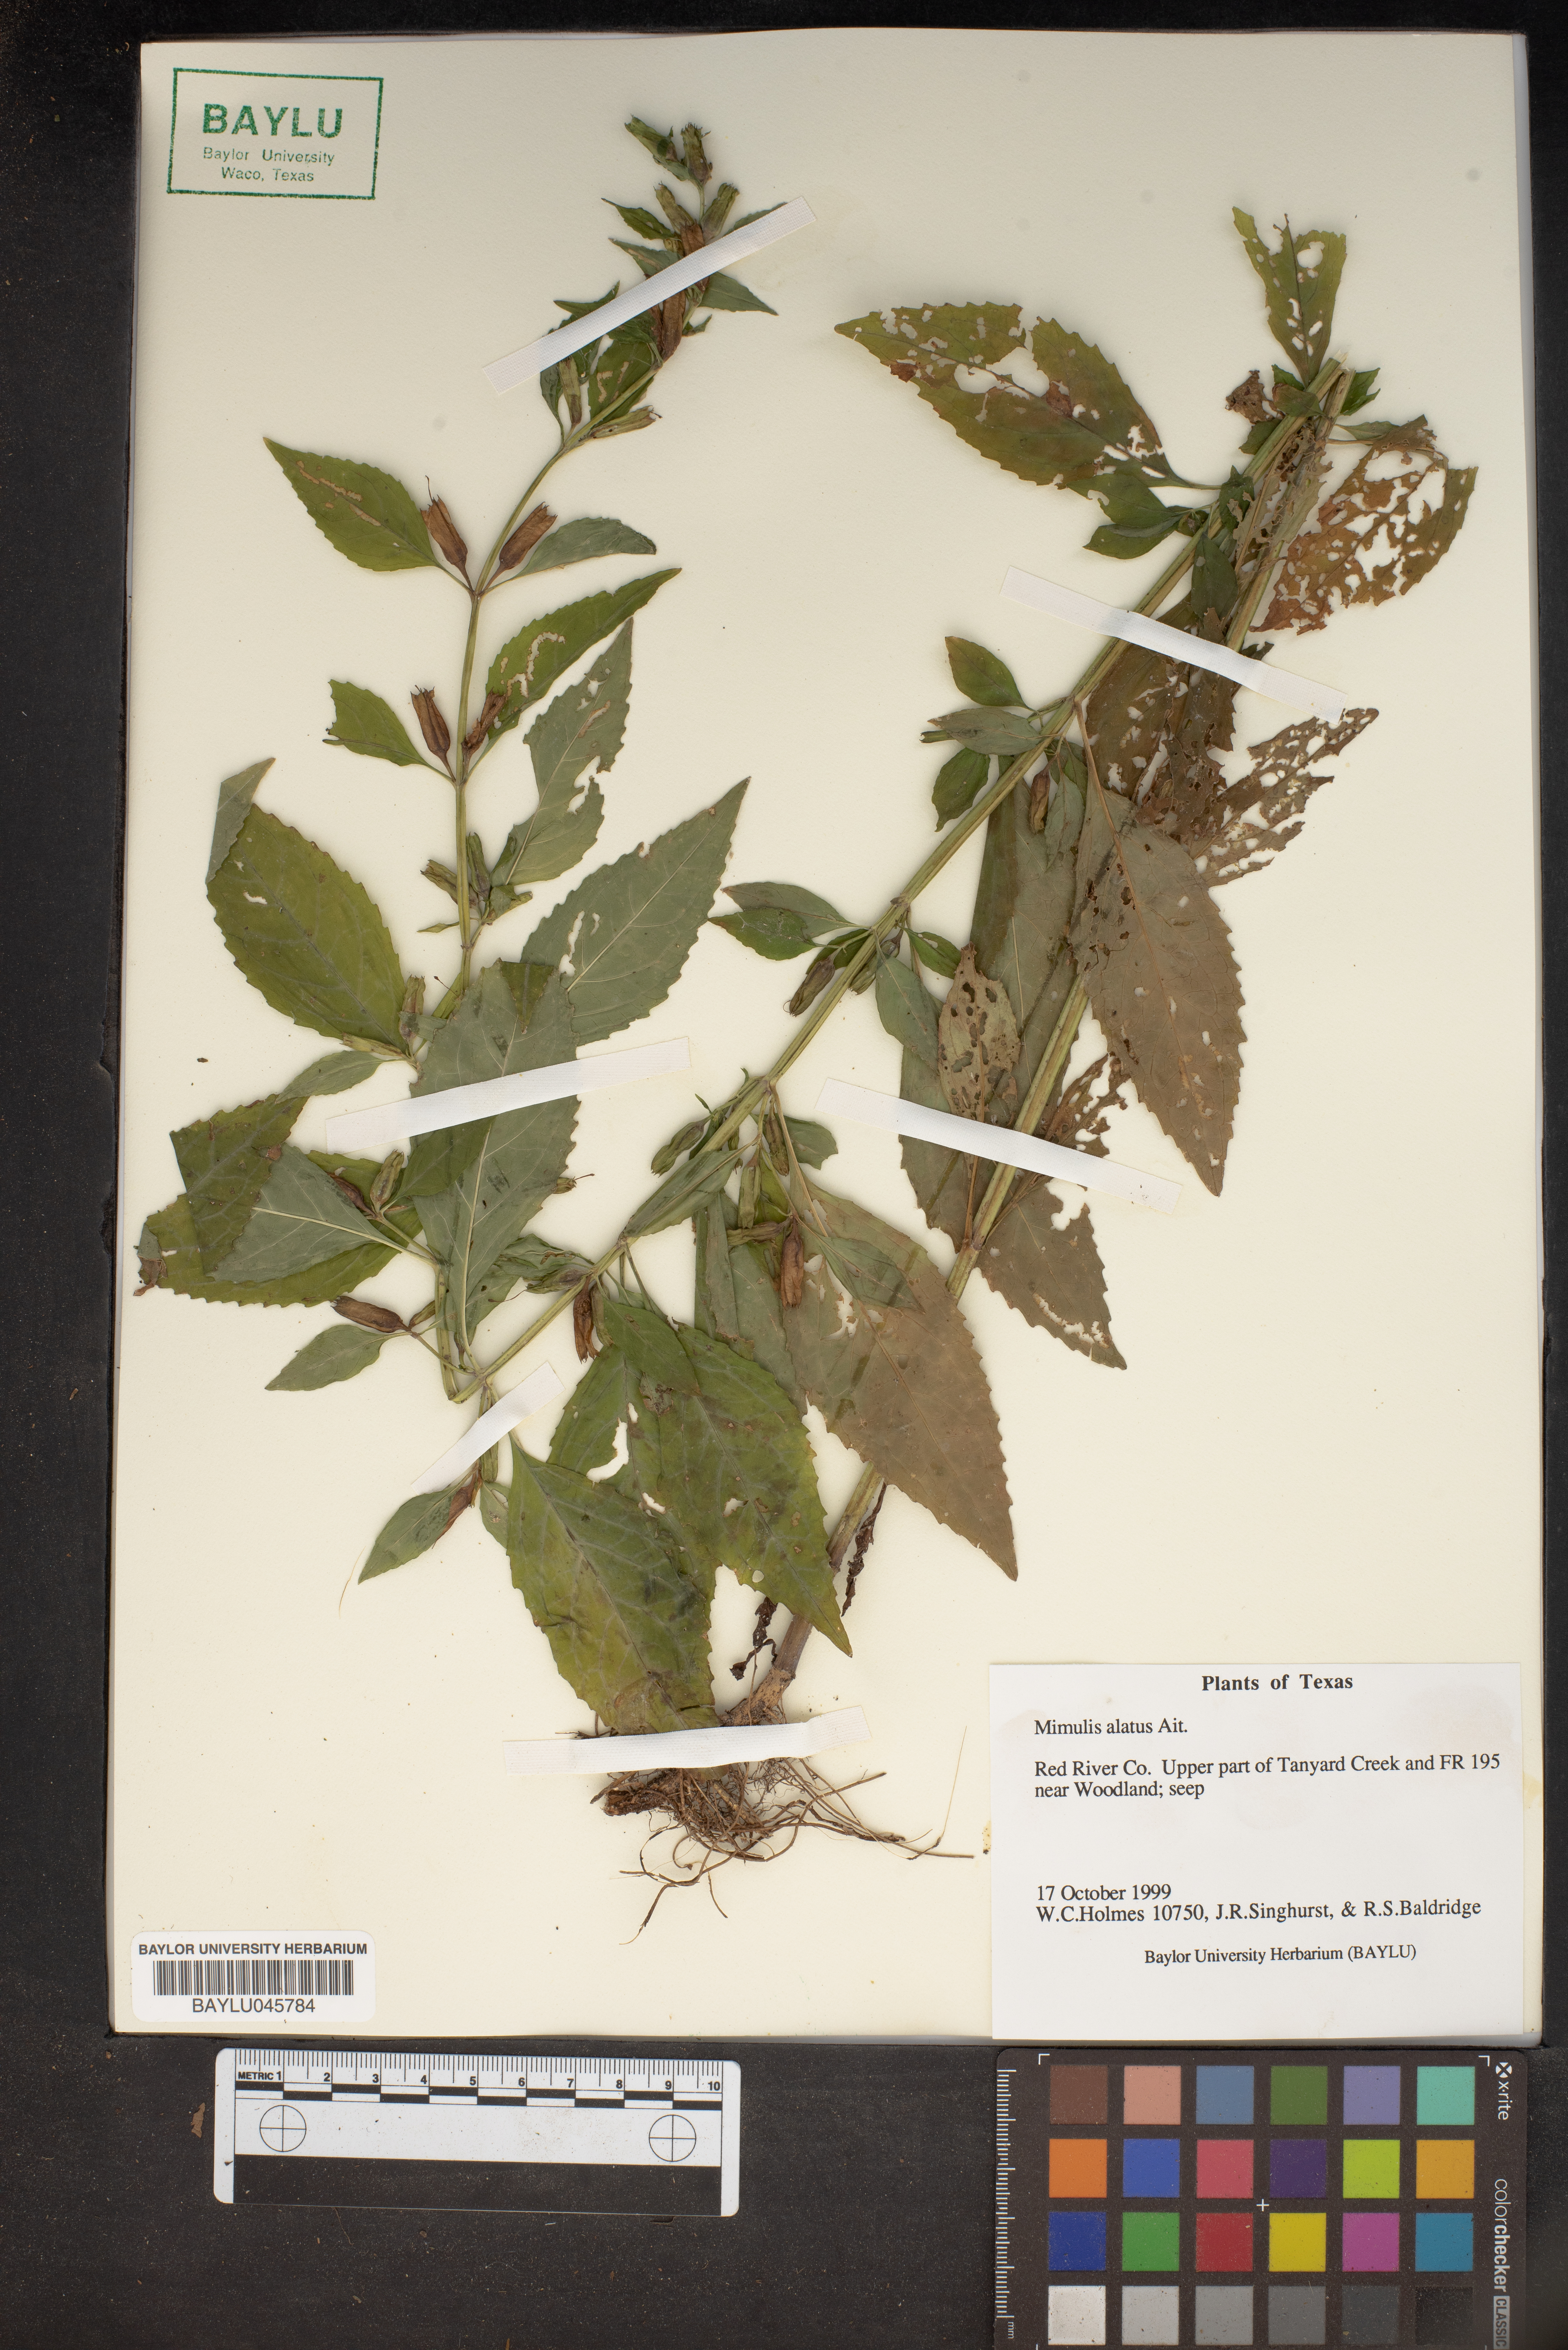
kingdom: Plantae
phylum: Tracheophyta
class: Magnoliopsida
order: Lamiales
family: Phrymaceae
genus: Mimulus
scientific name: Mimulus alatus
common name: Sharp-wing monkey-flower
